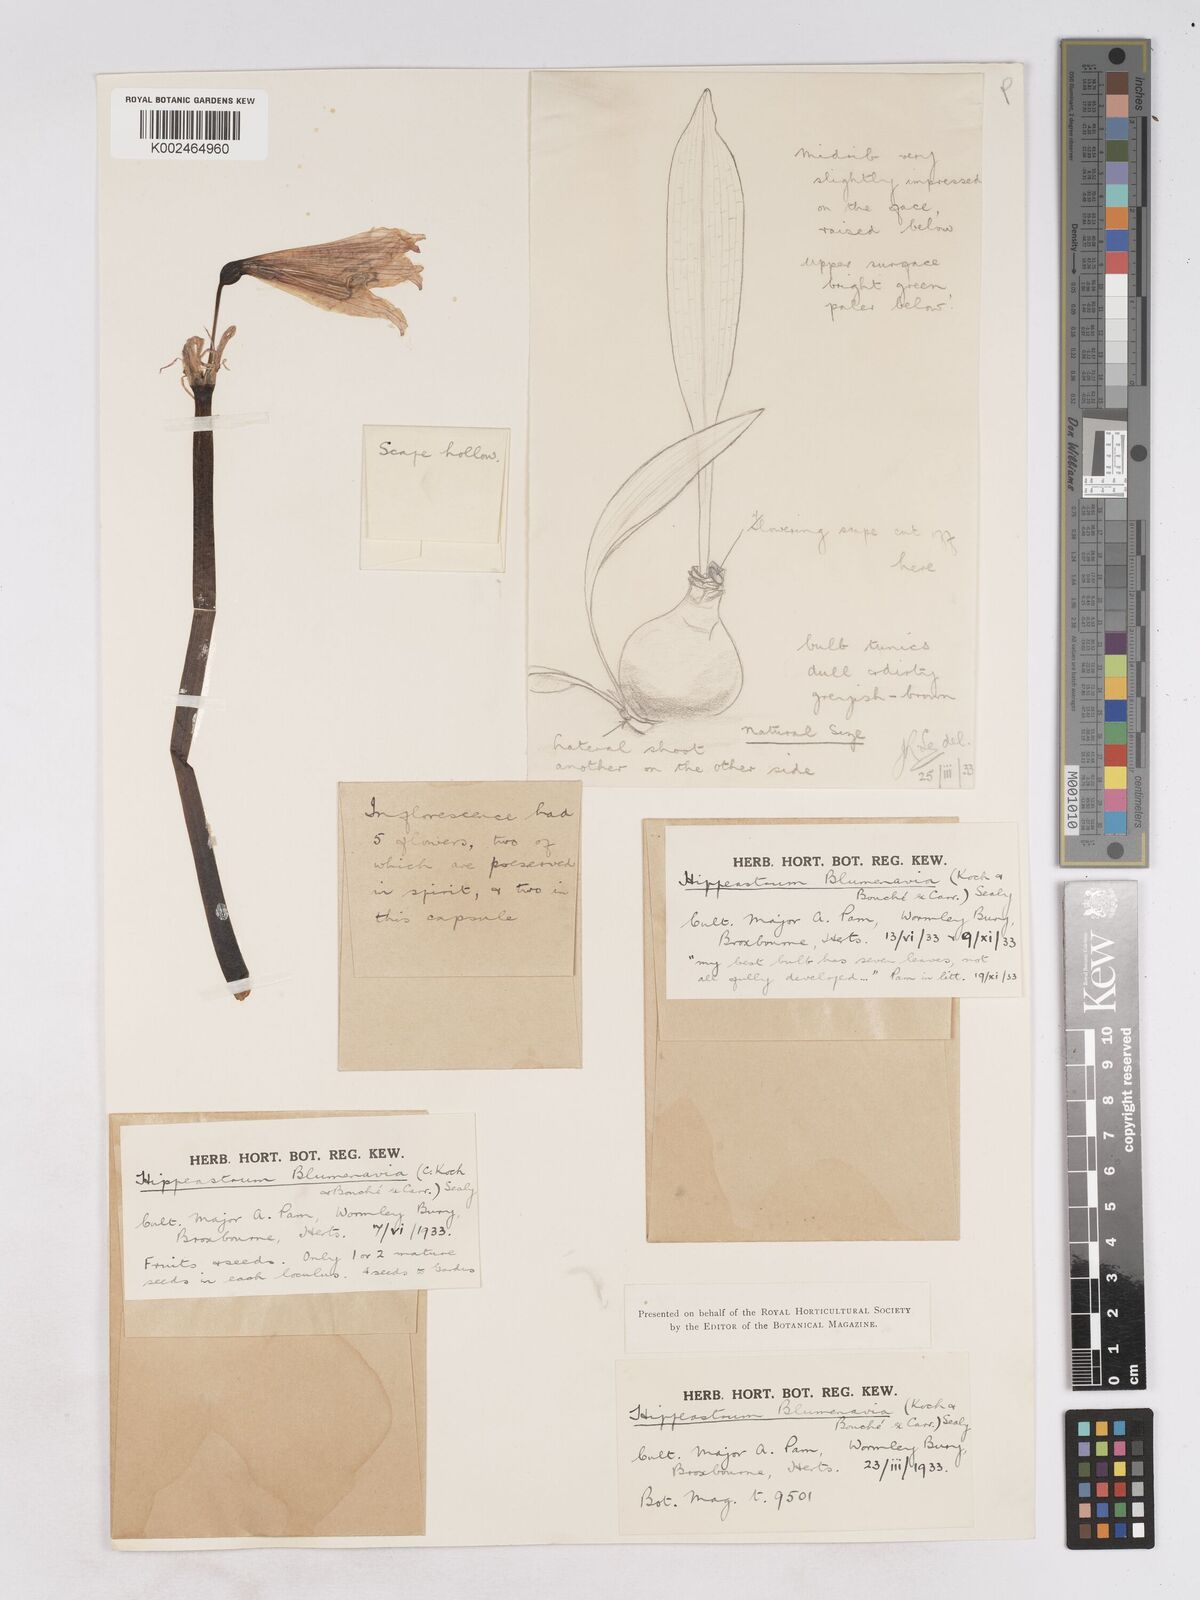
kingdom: Plantae
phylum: Tracheophyta
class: Liliopsida
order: Asparagales
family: Amaryllidaceae
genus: Zephyranthes
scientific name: Zephyranthes blumenavia
